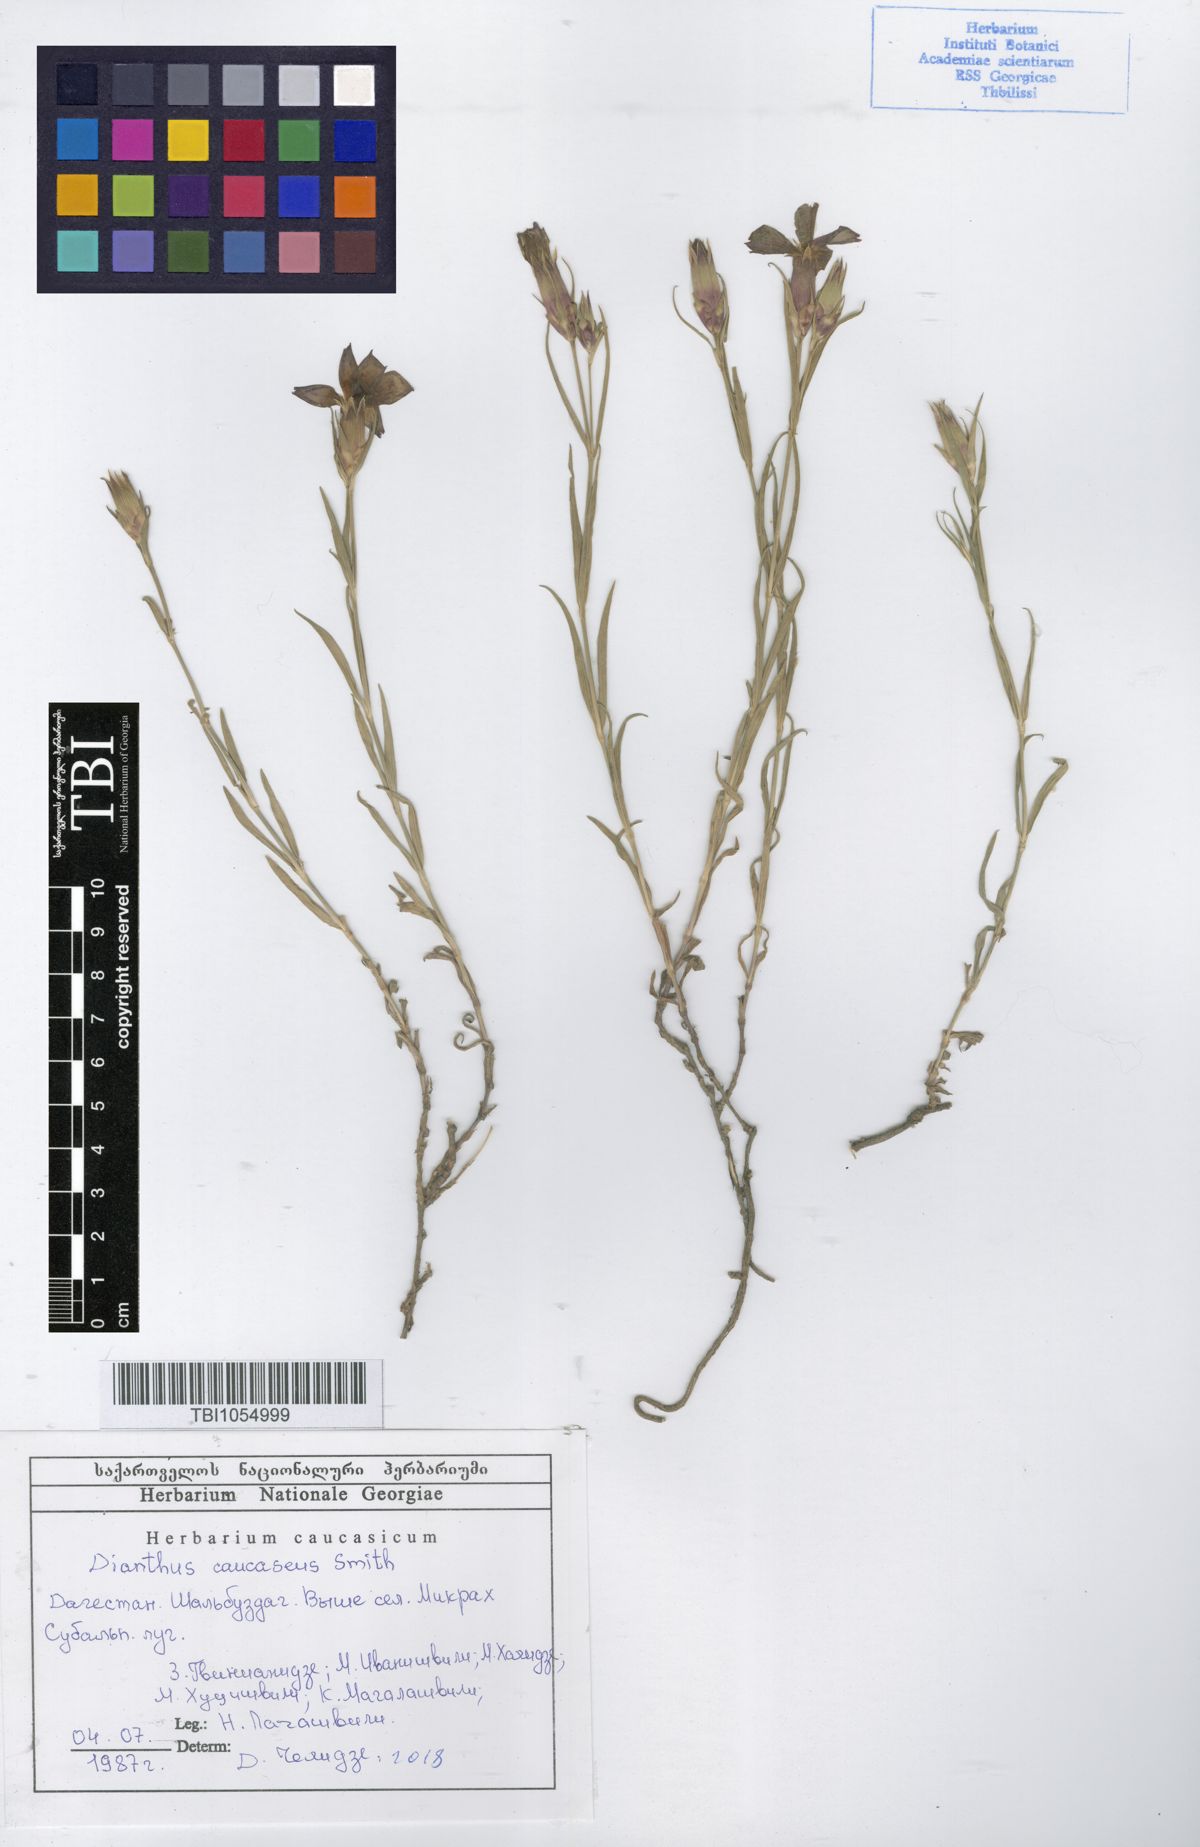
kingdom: Plantae
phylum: Tracheophyta
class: Magnoliopsida
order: Caryophyllales
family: Caryophyllaceae
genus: Dianthus
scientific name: Dianthus caucaseus
